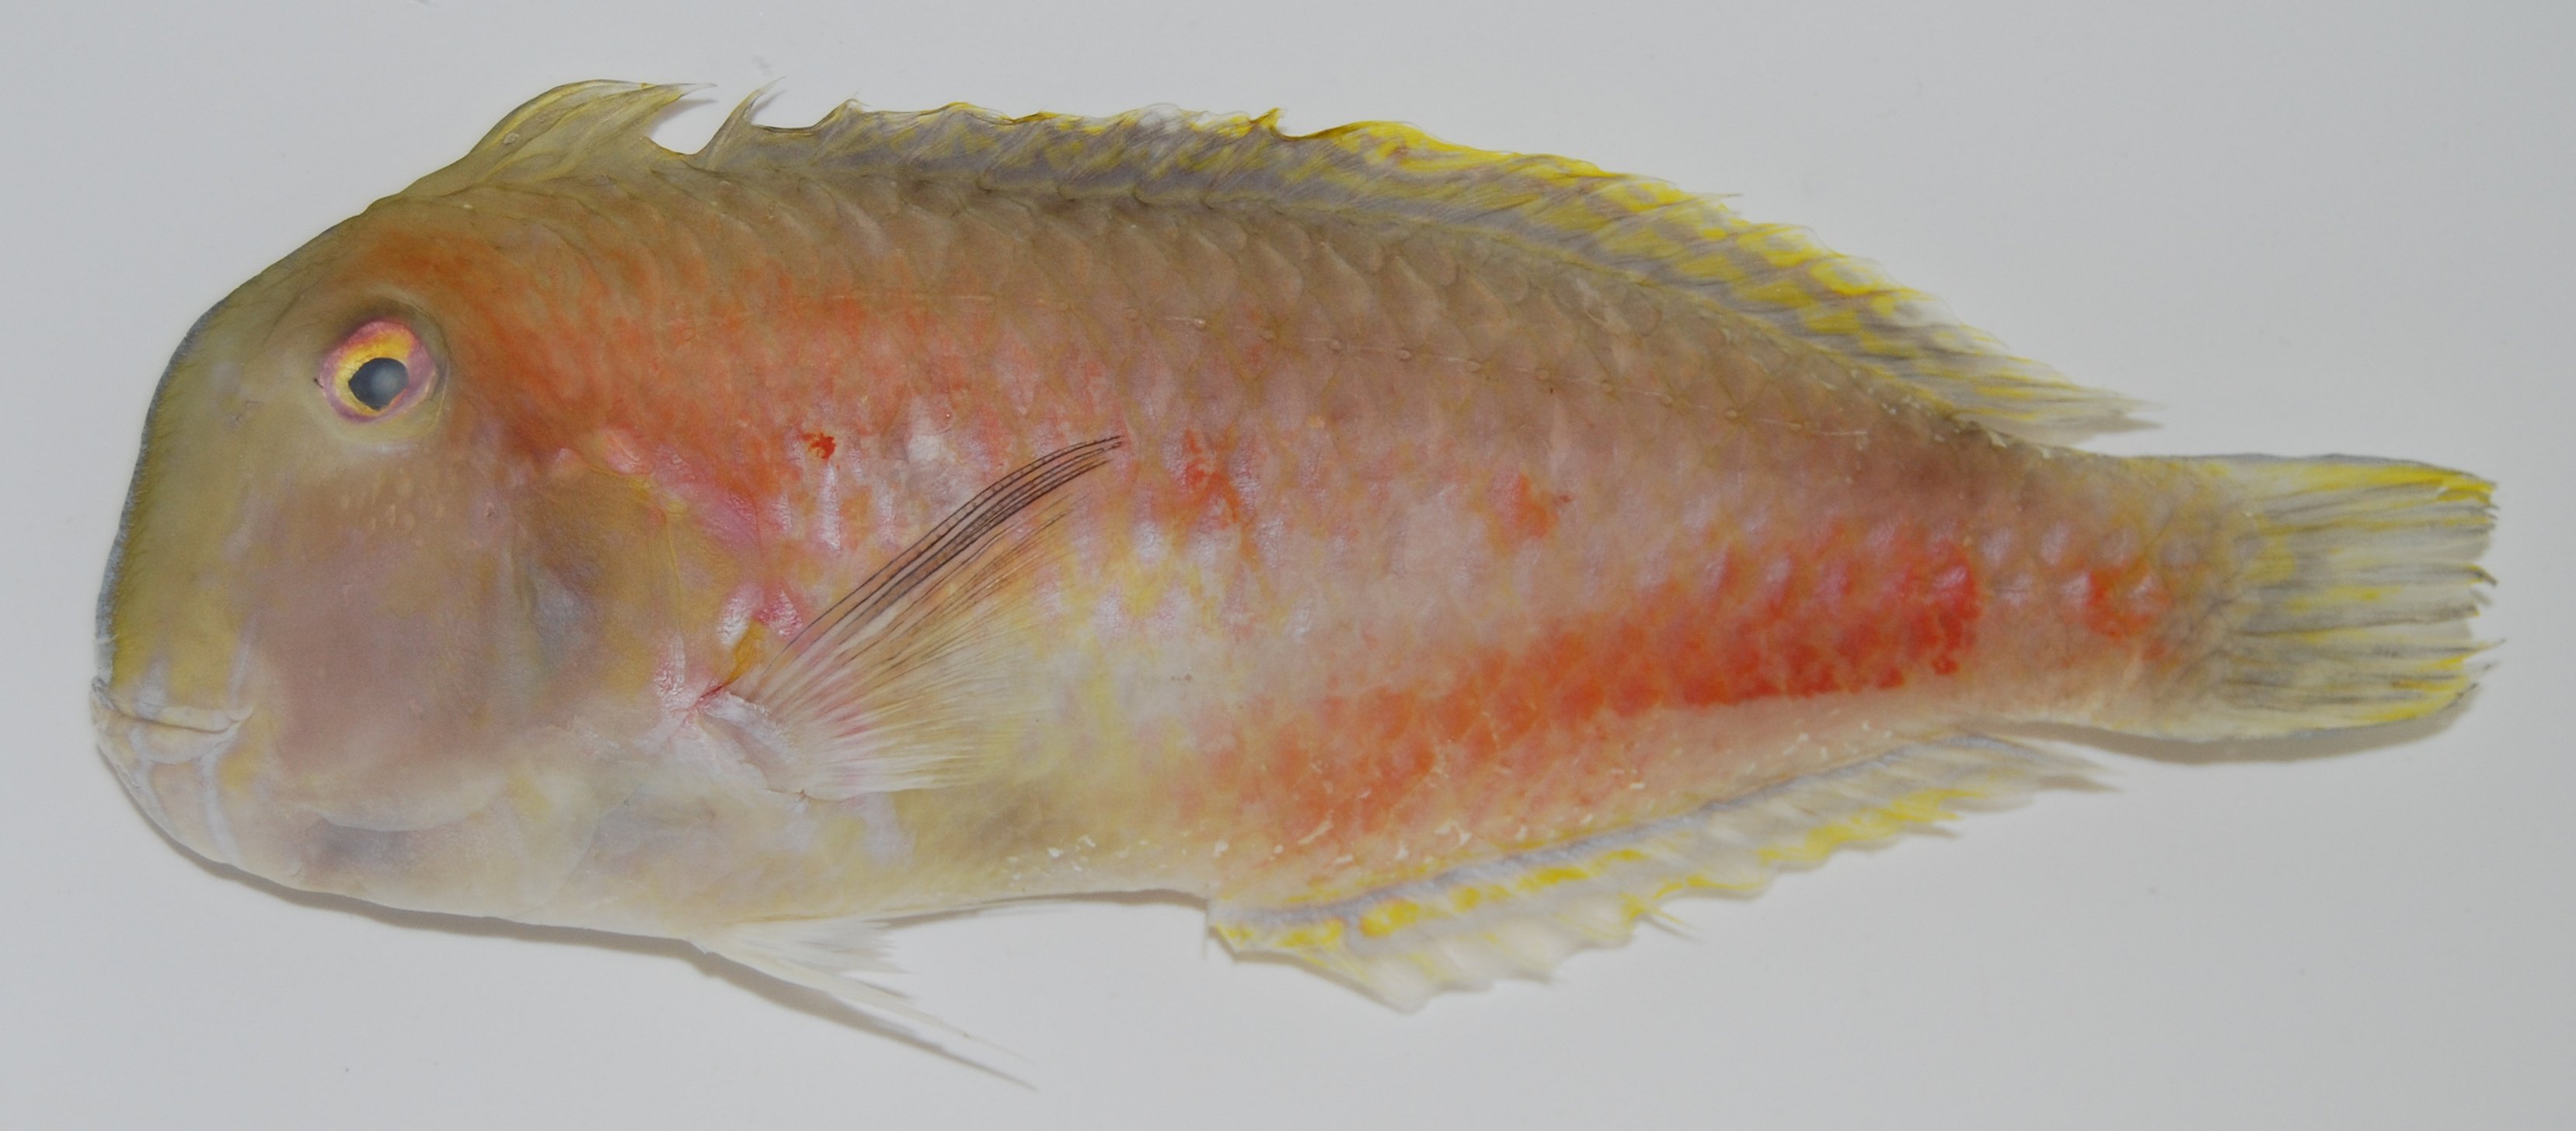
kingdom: Animalia
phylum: Chordata
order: Perciformes
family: Labridae
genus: Iniistius
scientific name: Iniistius brevipinnis
